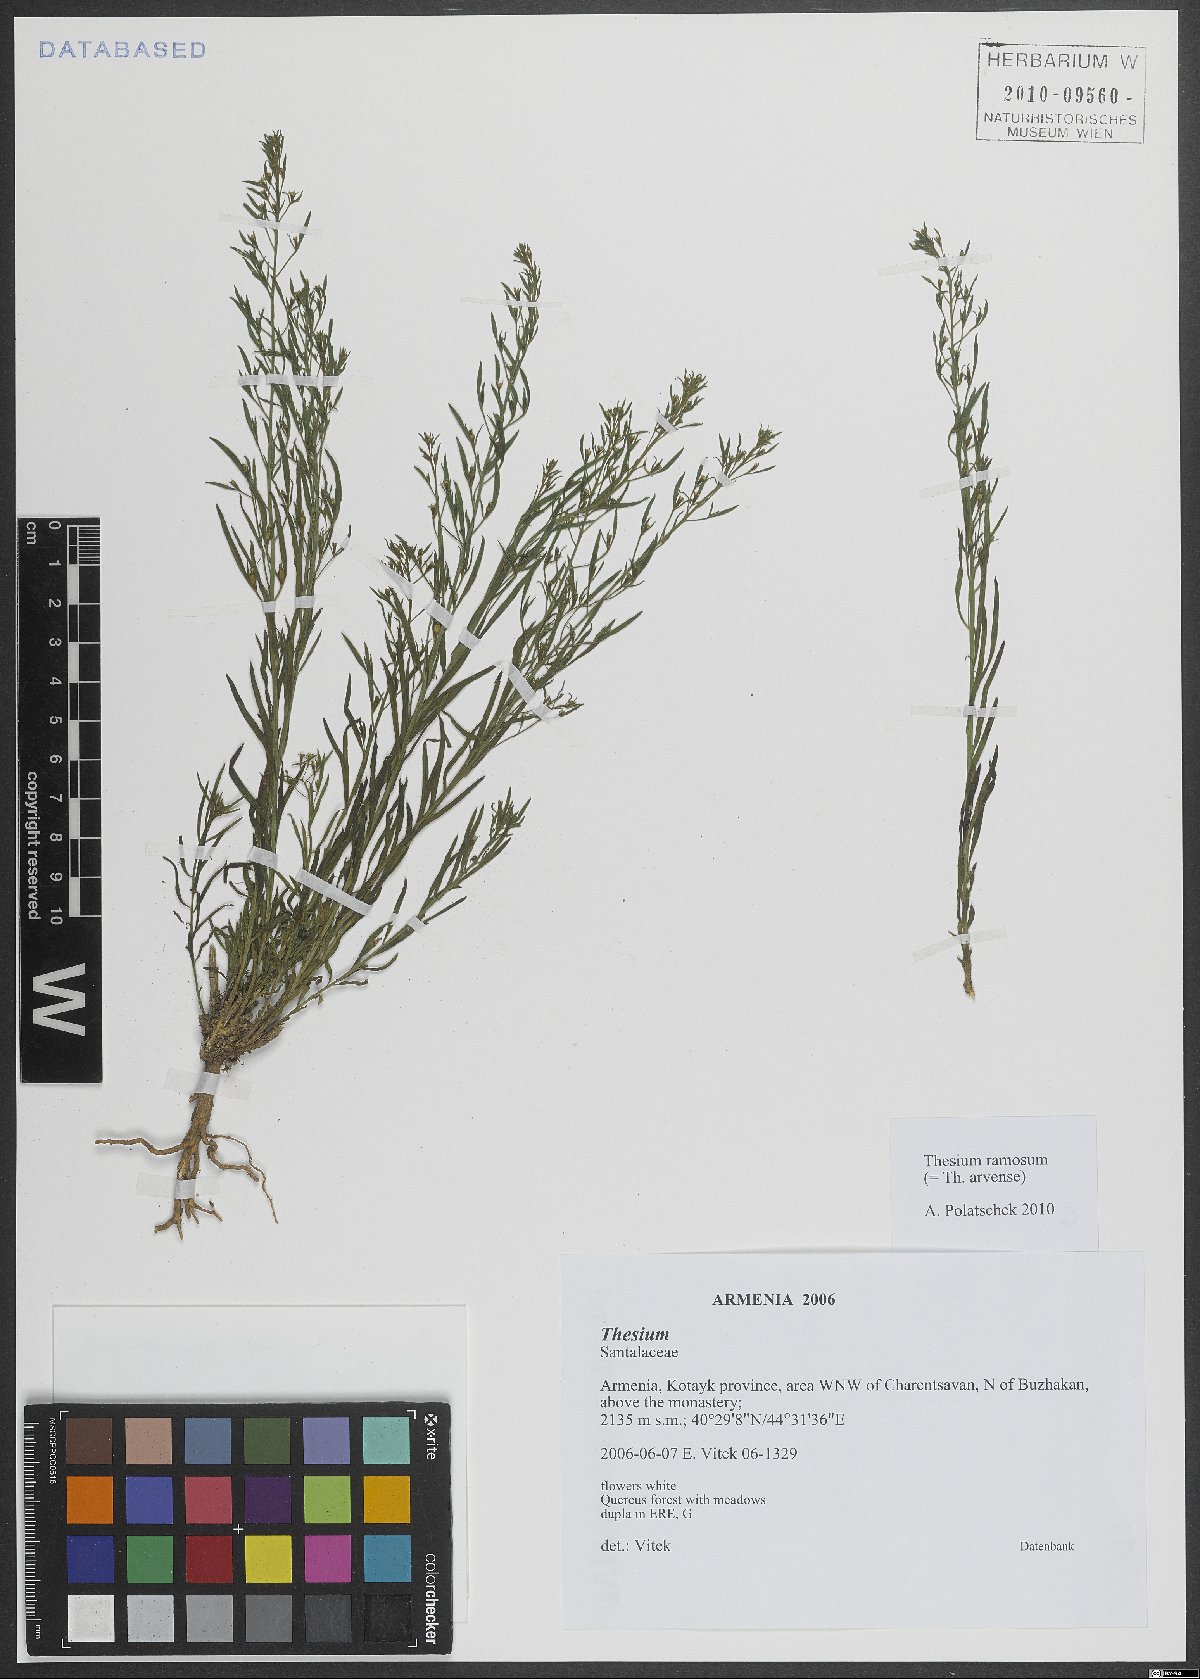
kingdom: Plantae
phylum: Tracheophyta
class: Magnoliopsida
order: Santalales
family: Thesiaceae
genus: Thesium
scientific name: Thesium ramosum
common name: Field thesium
